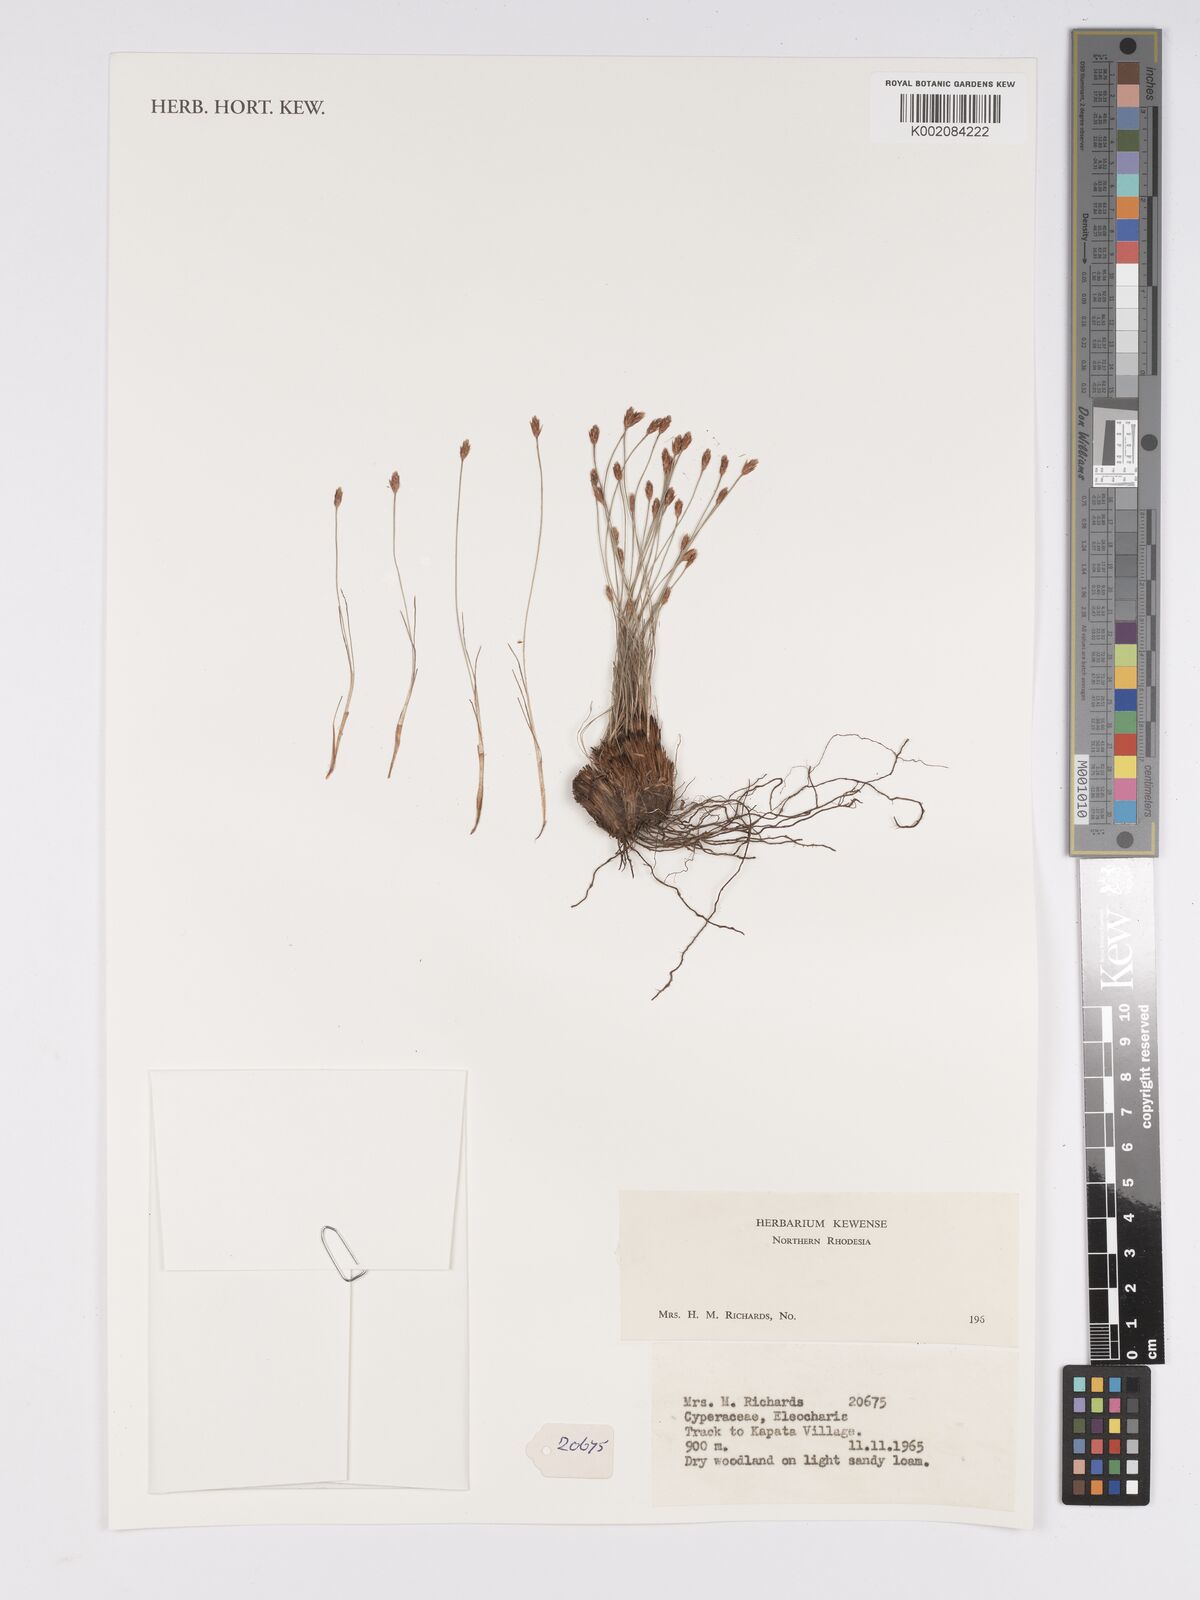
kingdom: Plantae
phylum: Tracheophyta
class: Liliopsida
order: Poales
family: Cyperaceae
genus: Bulbostylis
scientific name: Bulbostylis
